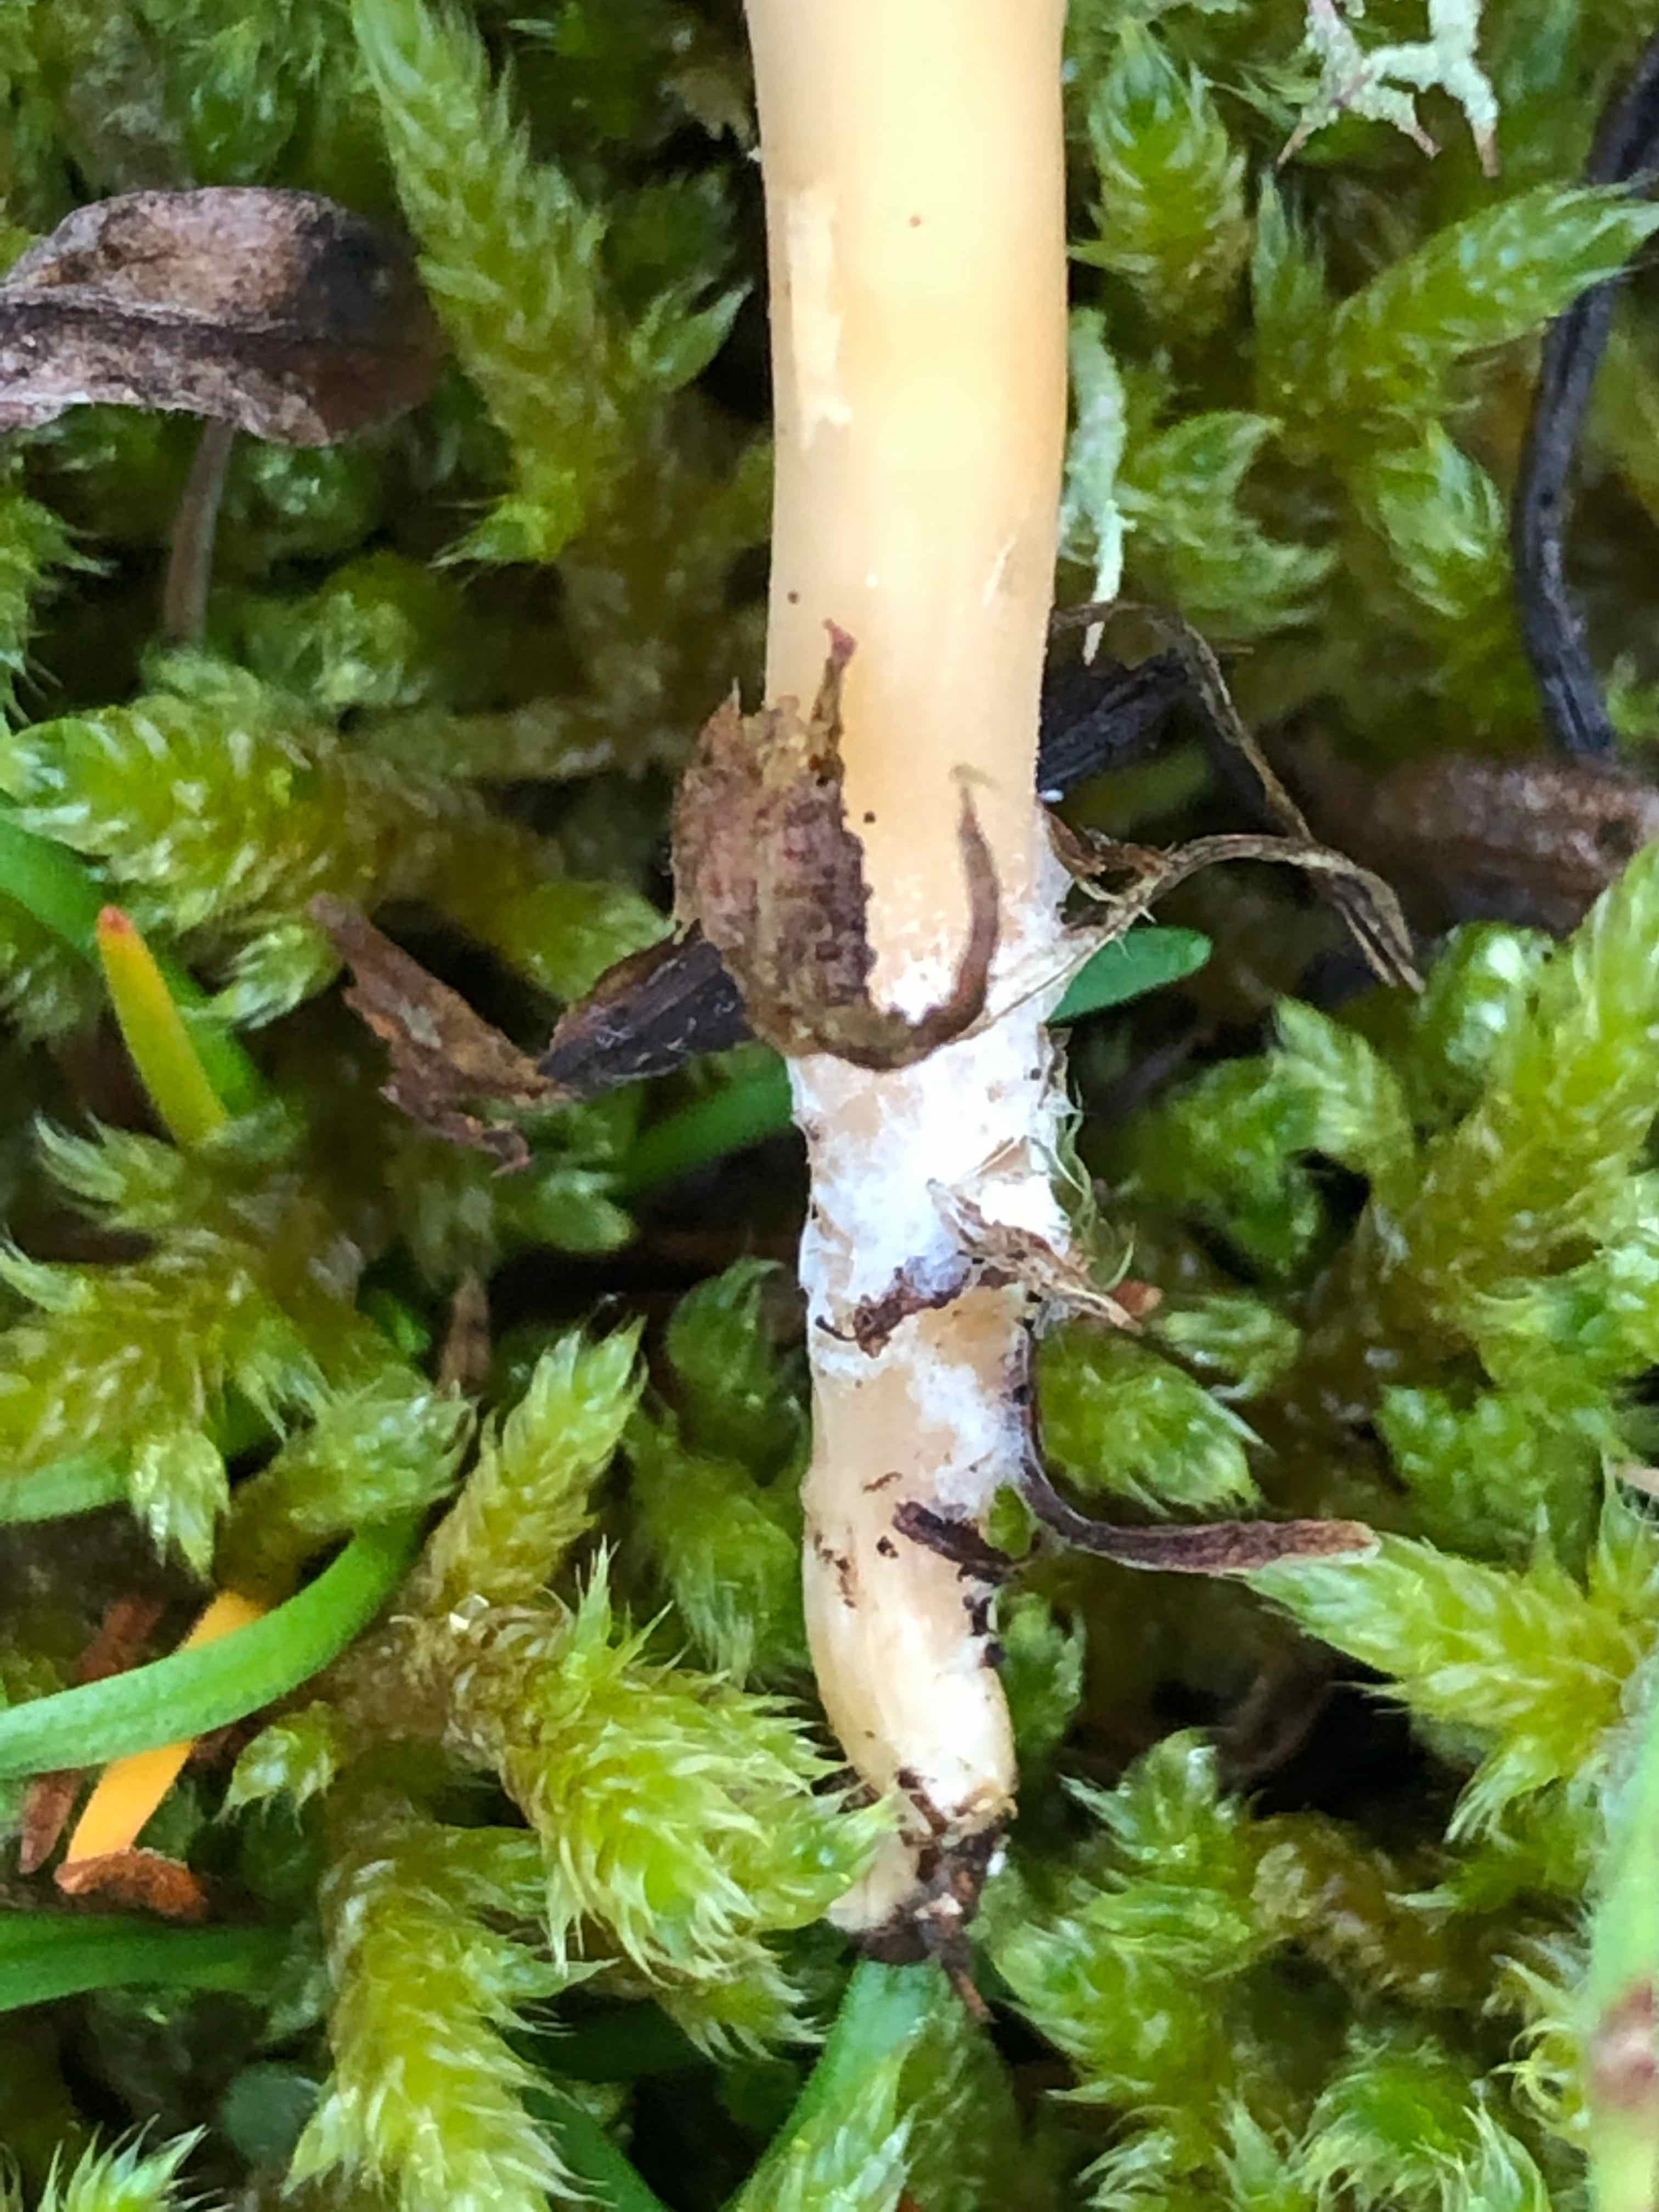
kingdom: Fungi
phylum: Basidiomycota
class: Agaricomycetes
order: Agaricales
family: Tricholomataceae
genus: Clitocybe
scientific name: Clitocybe
